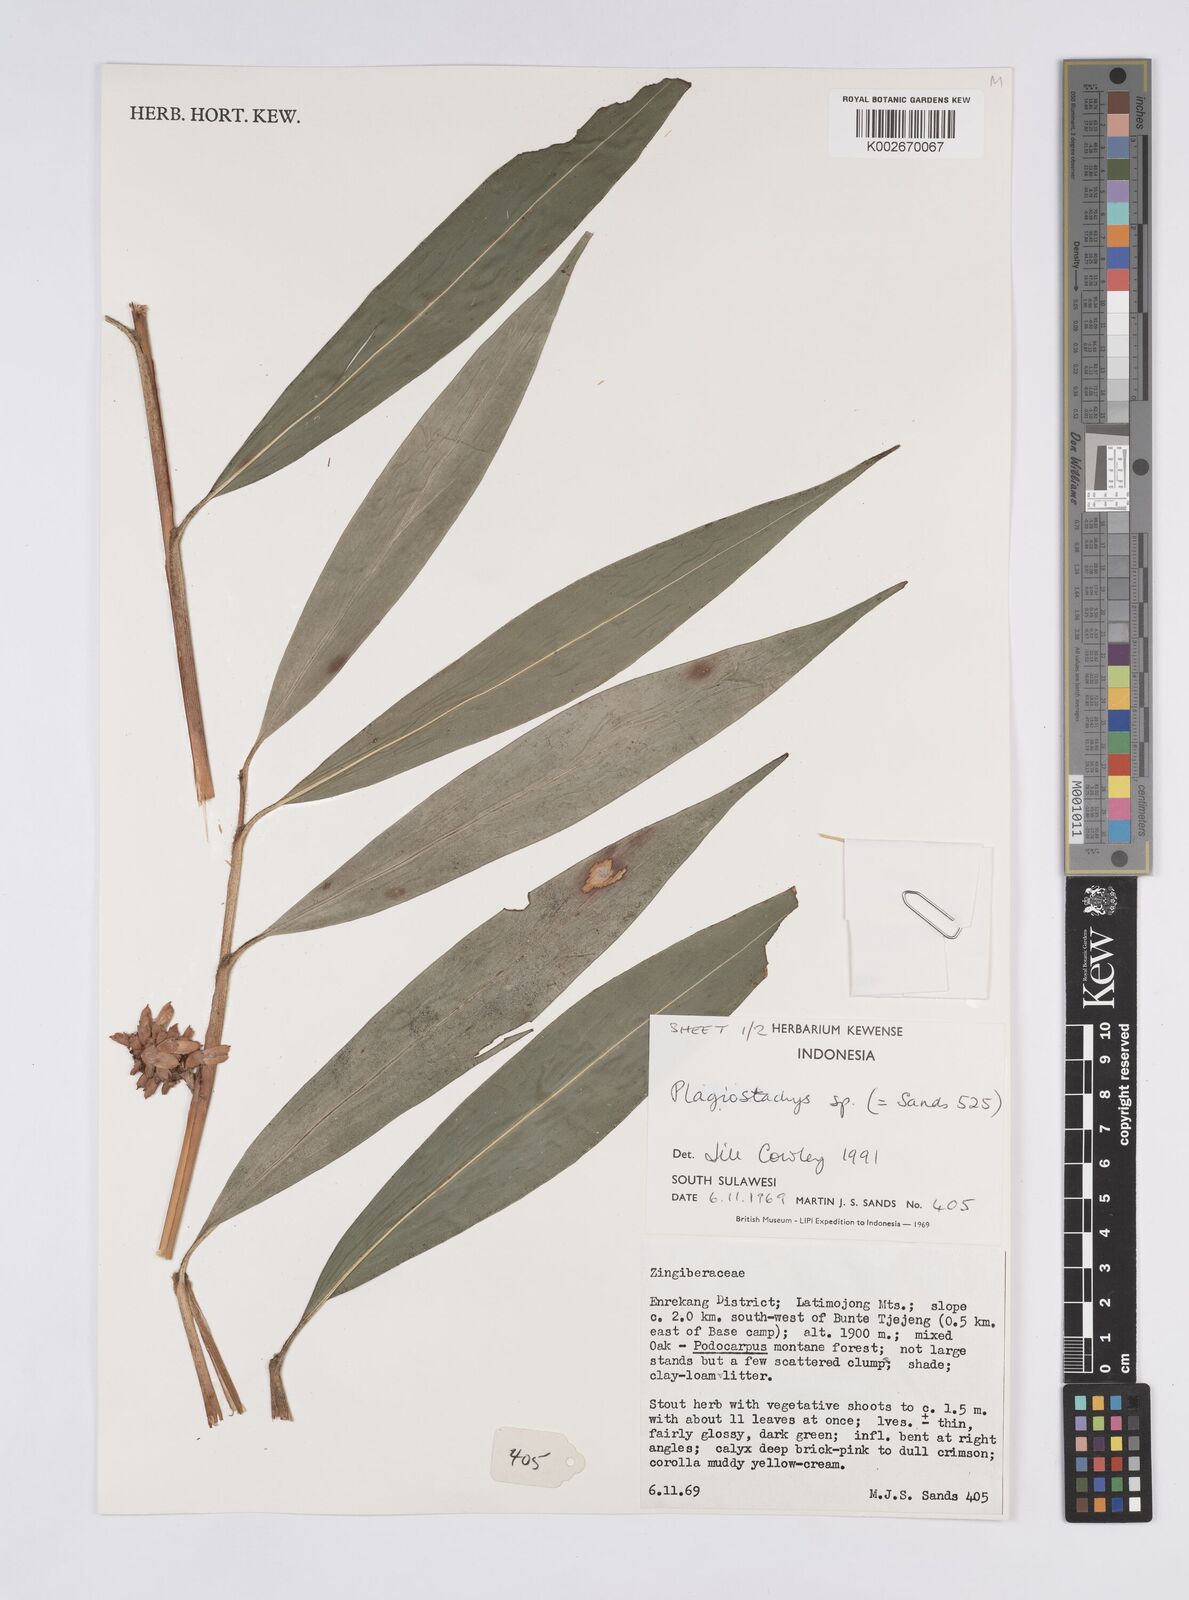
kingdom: Plantae
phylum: Tracheophyta
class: Liliopsida
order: Zingiberales
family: Zingiberaceae
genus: Plagiostachys
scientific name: Plagiostachys
